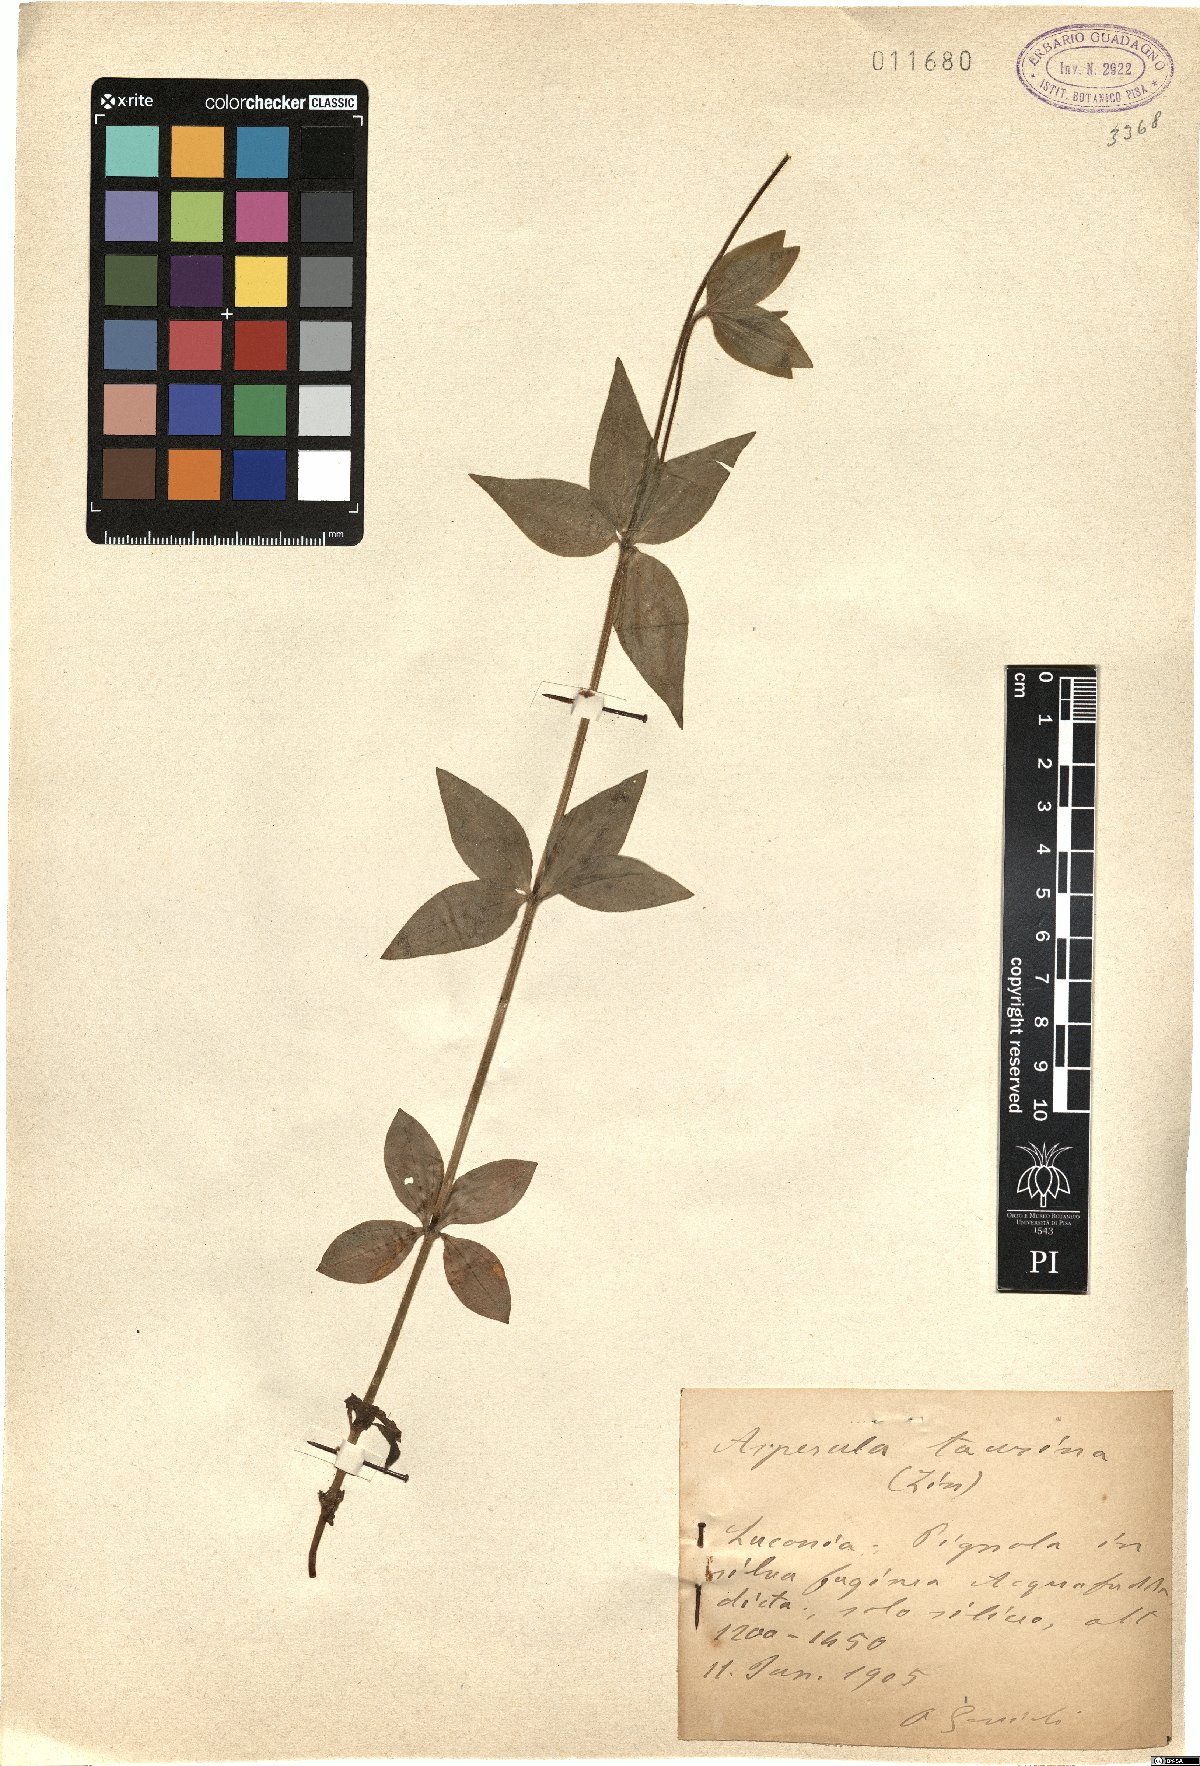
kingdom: Plantae
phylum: Tracheophyta
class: Magnoliopsida
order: Gentianales
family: Rubiaceae
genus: Asperula
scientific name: Asperula taurina
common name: Pink woodruff
